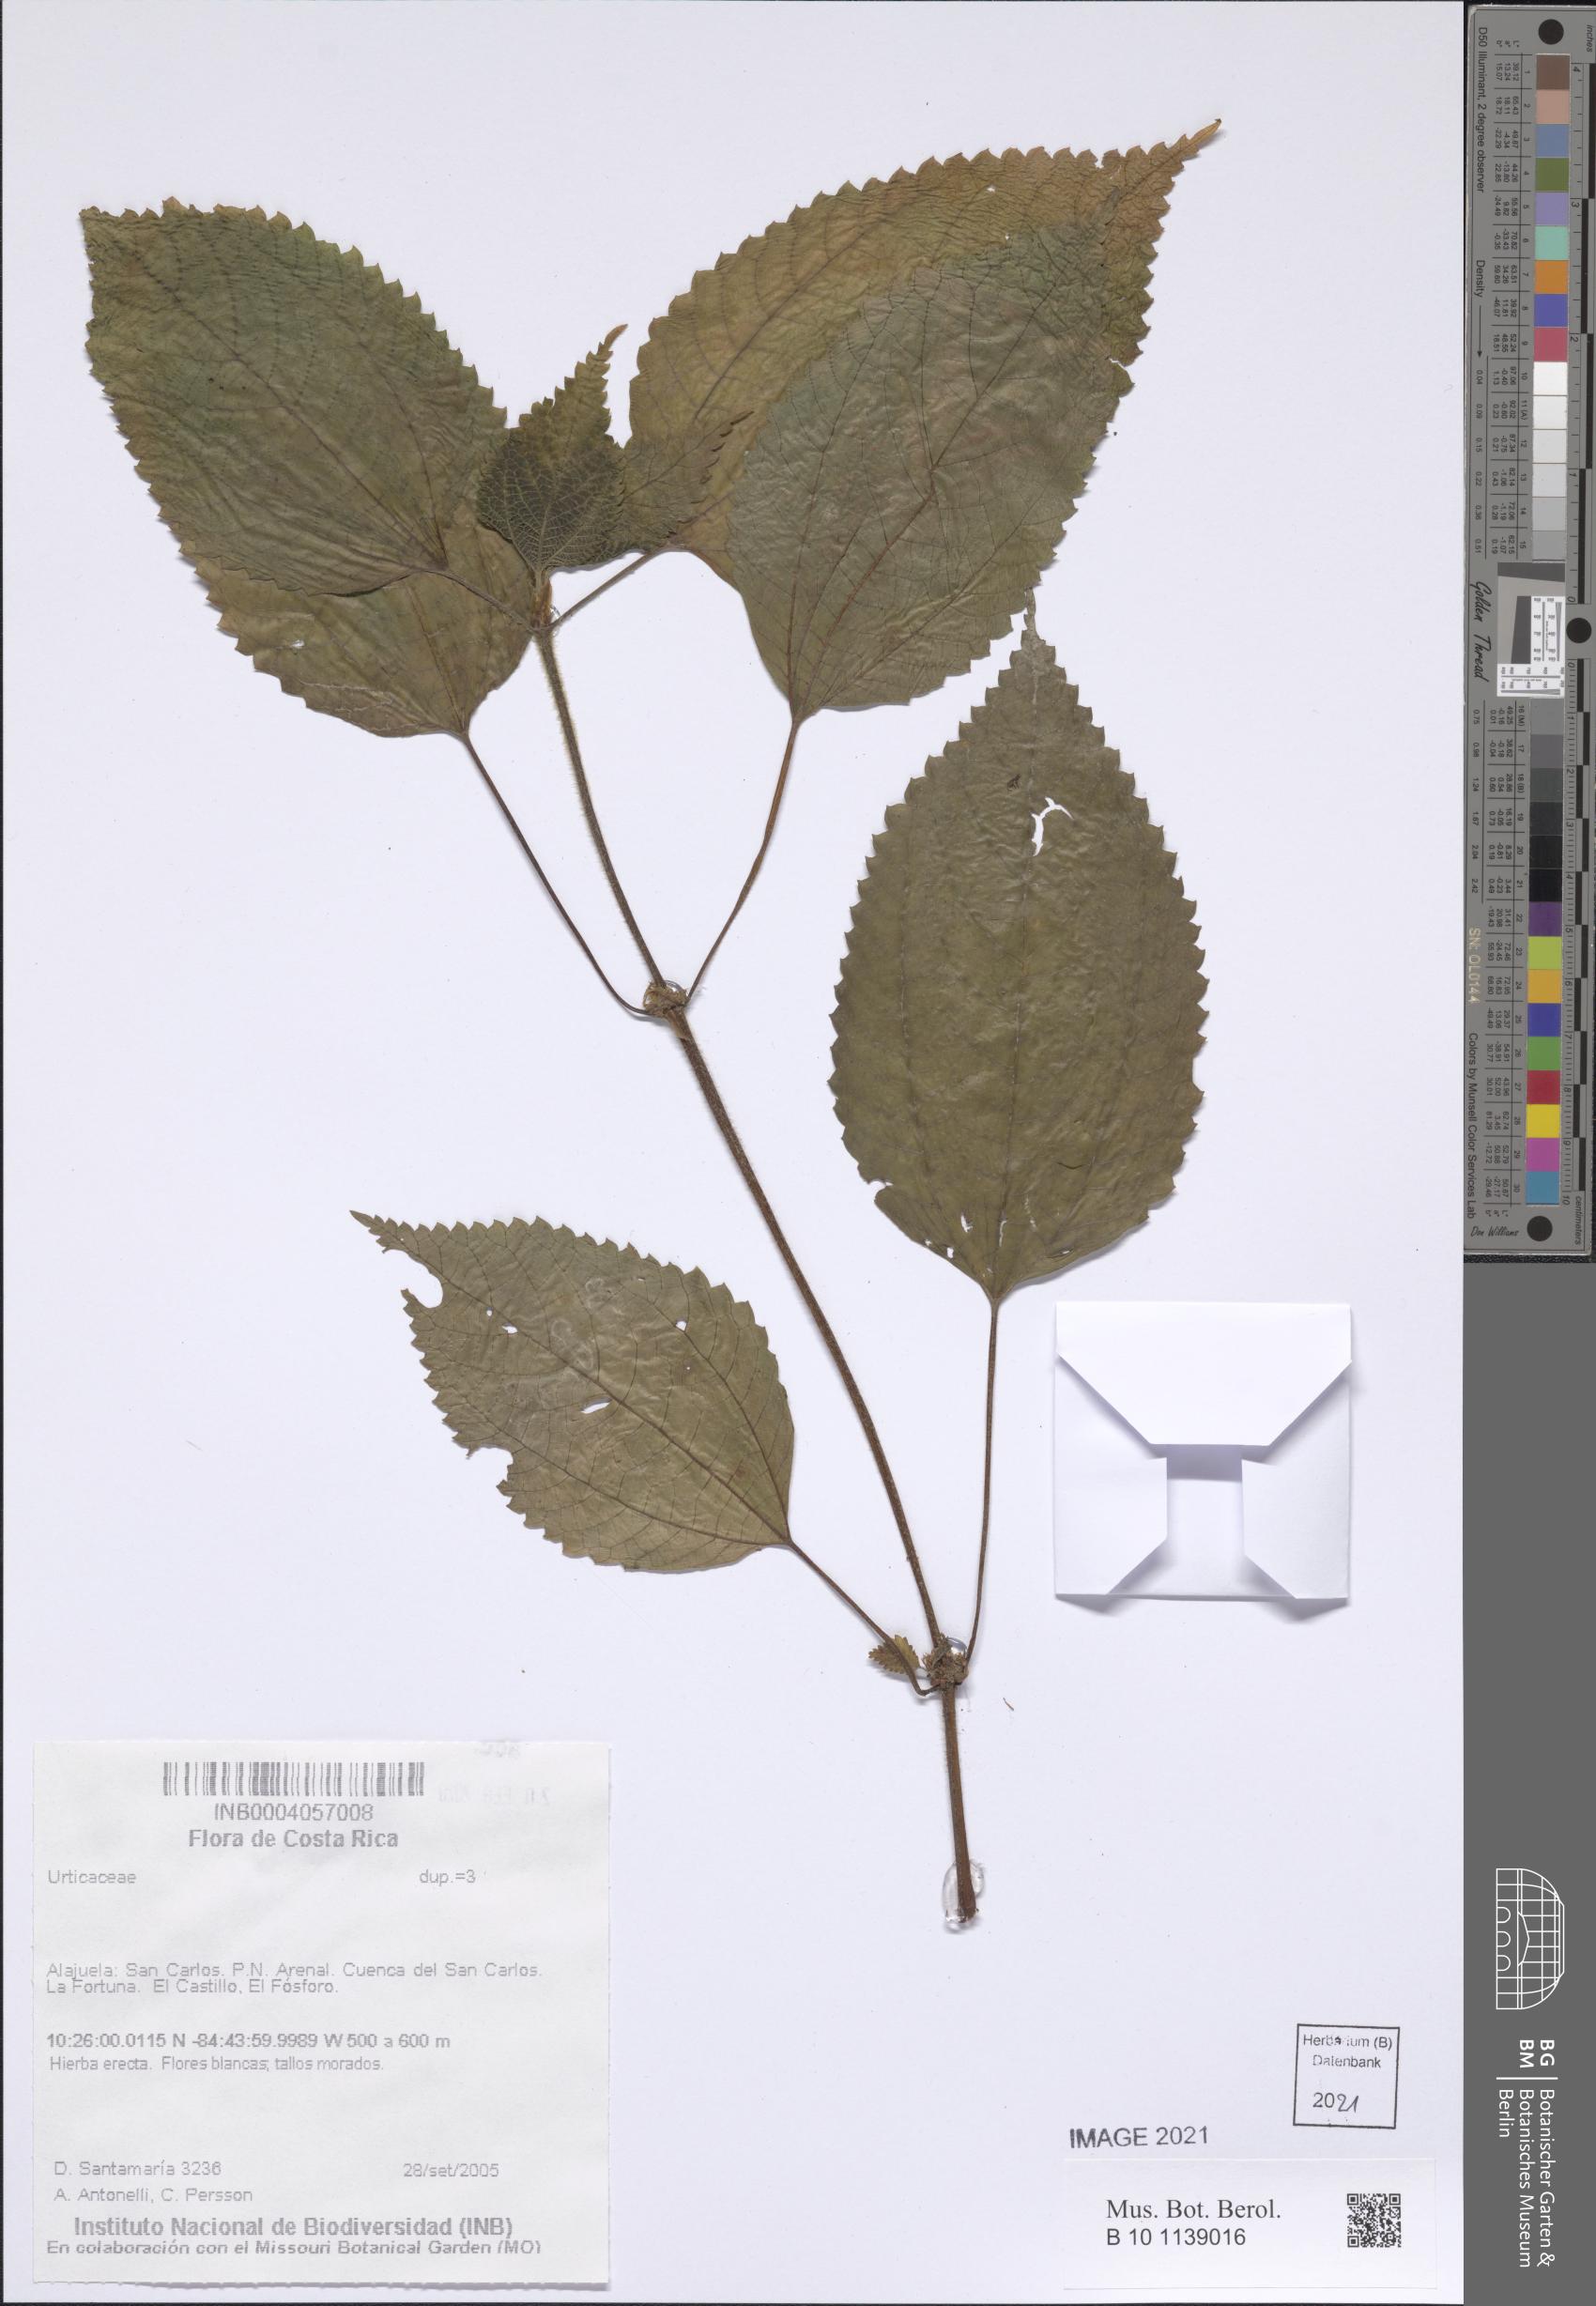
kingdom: Plantae
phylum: Tracheophyta
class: Magnoliopsida
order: Rosales
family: Urticaceae
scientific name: Urticaceae
